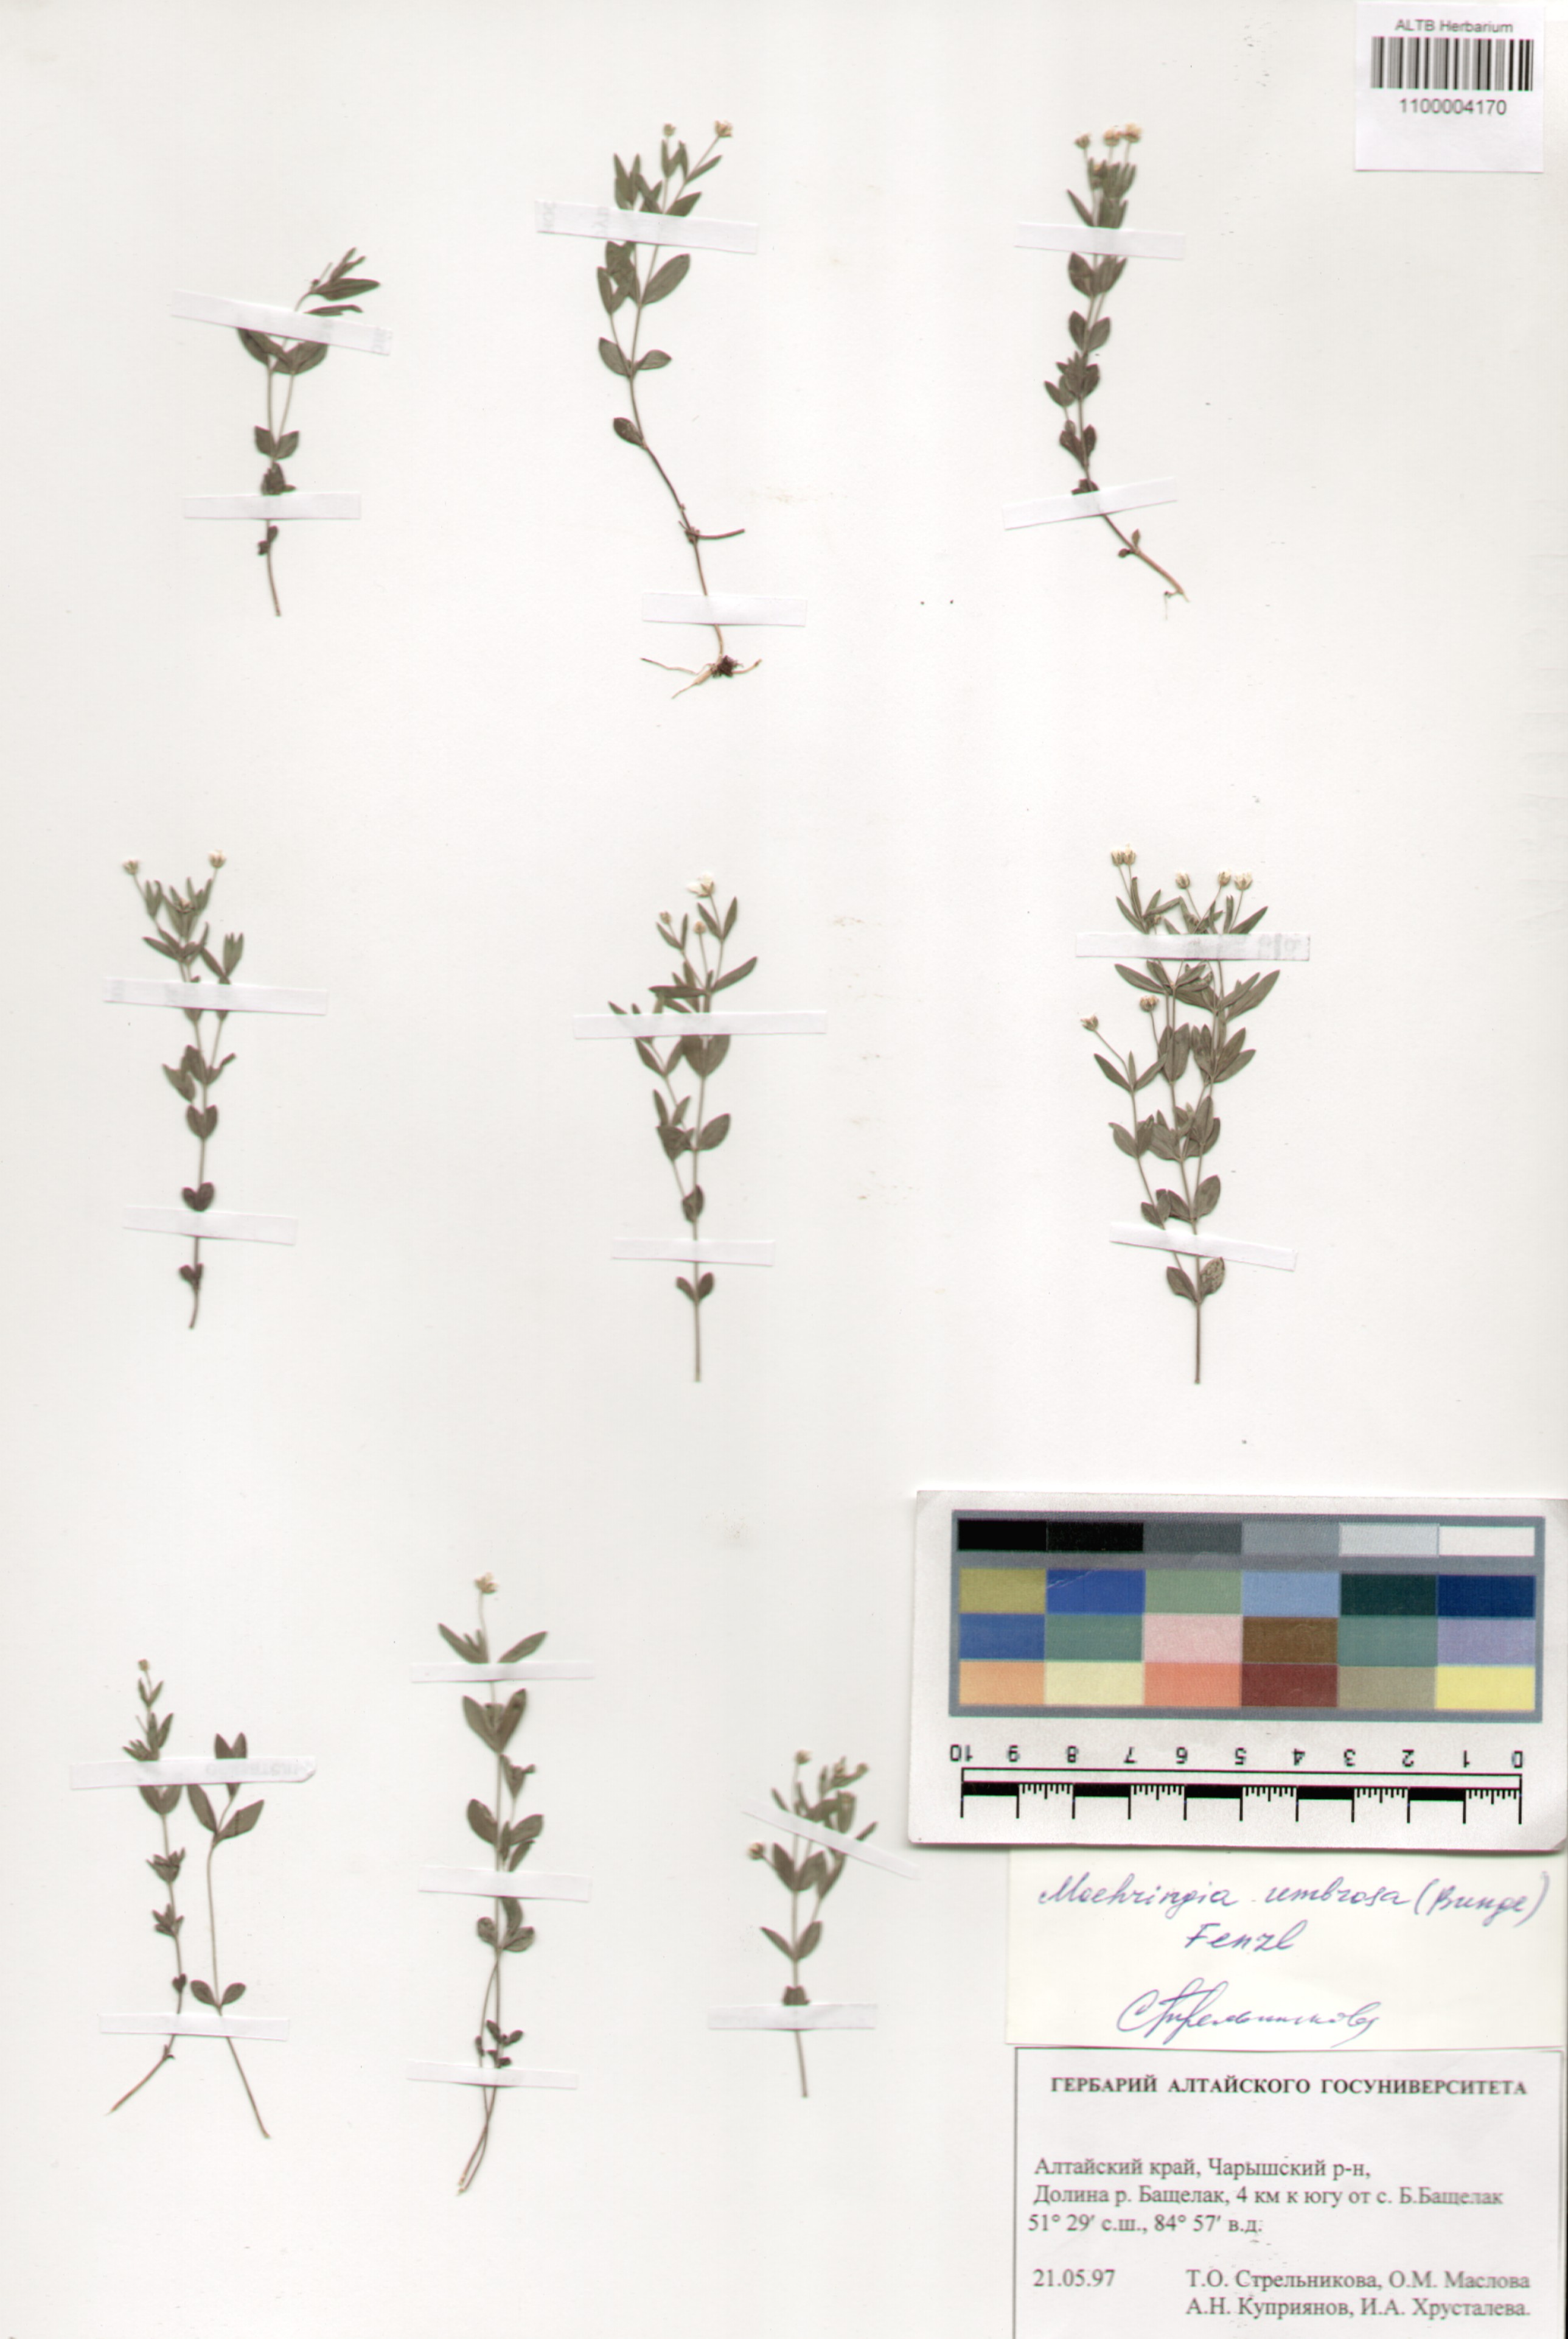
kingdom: Plantae
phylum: Tracheophyta
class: Magnoliopsida
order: Caryophyllales
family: Caryophyllaceae
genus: Moehringia
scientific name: Moehringia umbrosa
